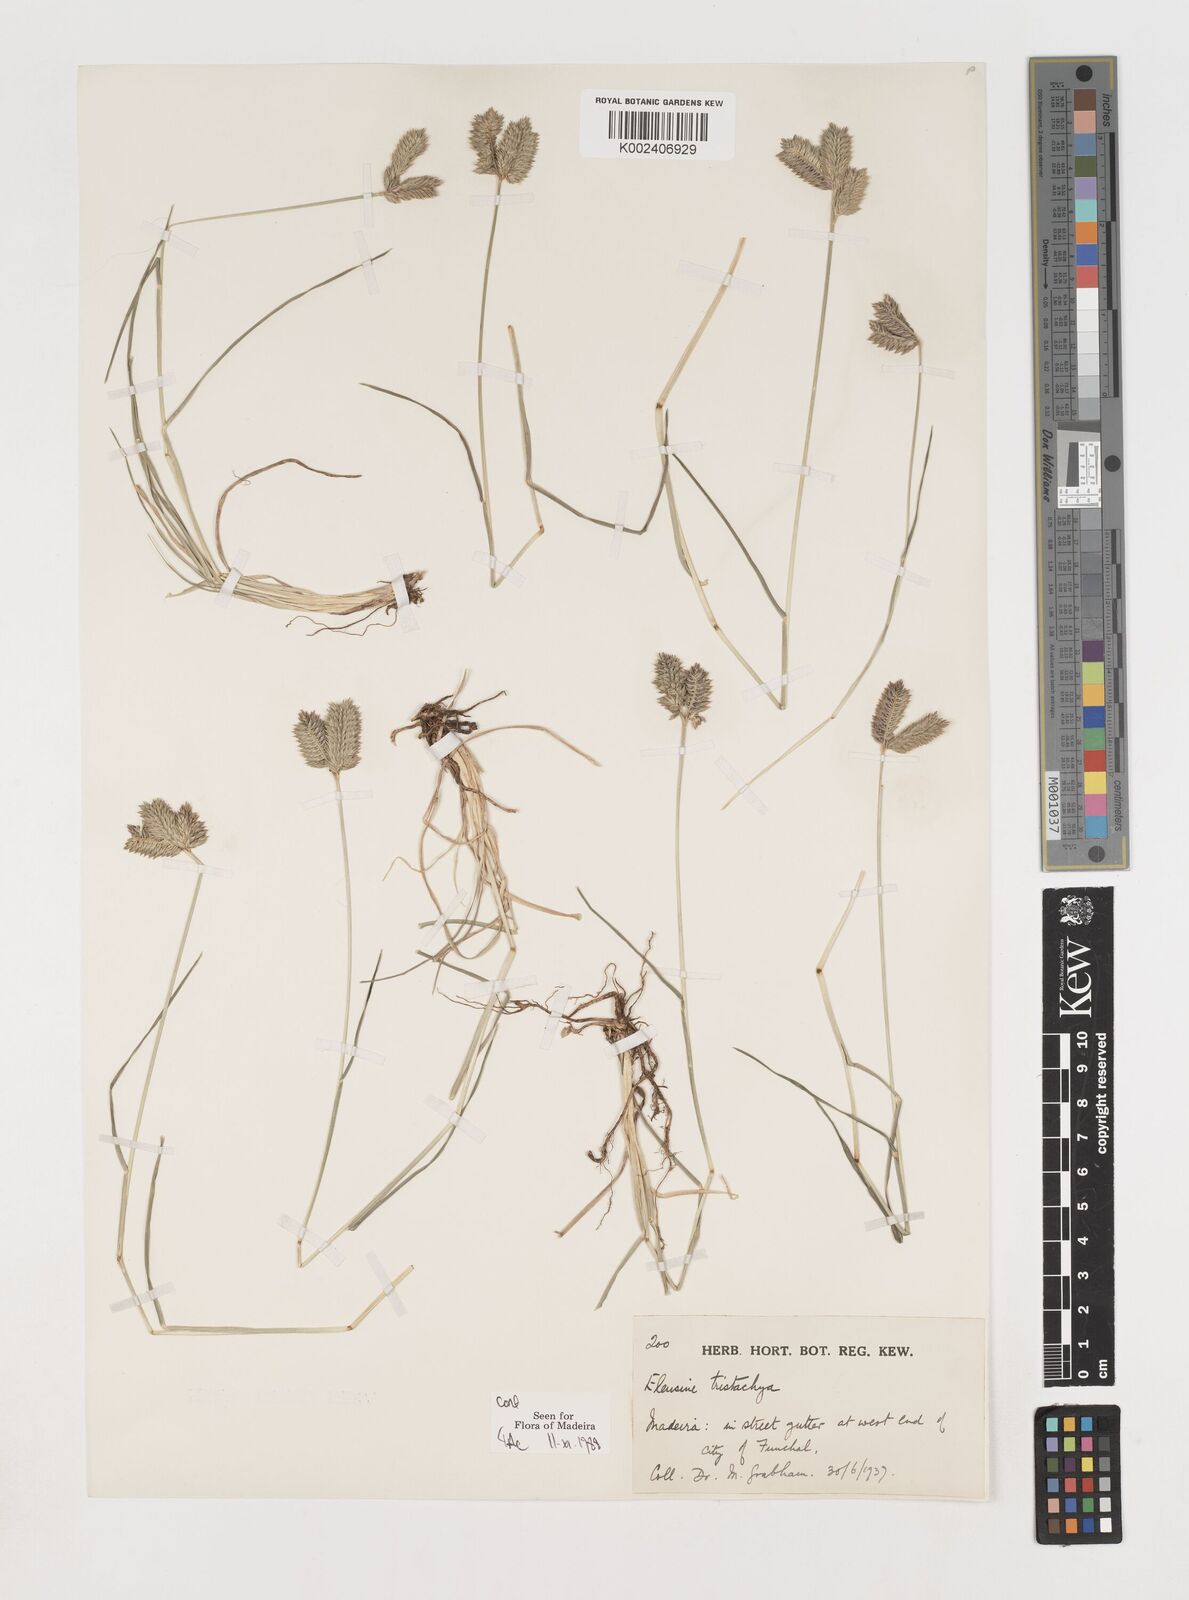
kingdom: Plantae
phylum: Tracheophyta
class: Liliopsida
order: Poales
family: Poaceae
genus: Eleusine
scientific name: Eleusine tristachya
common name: American yard-grass
